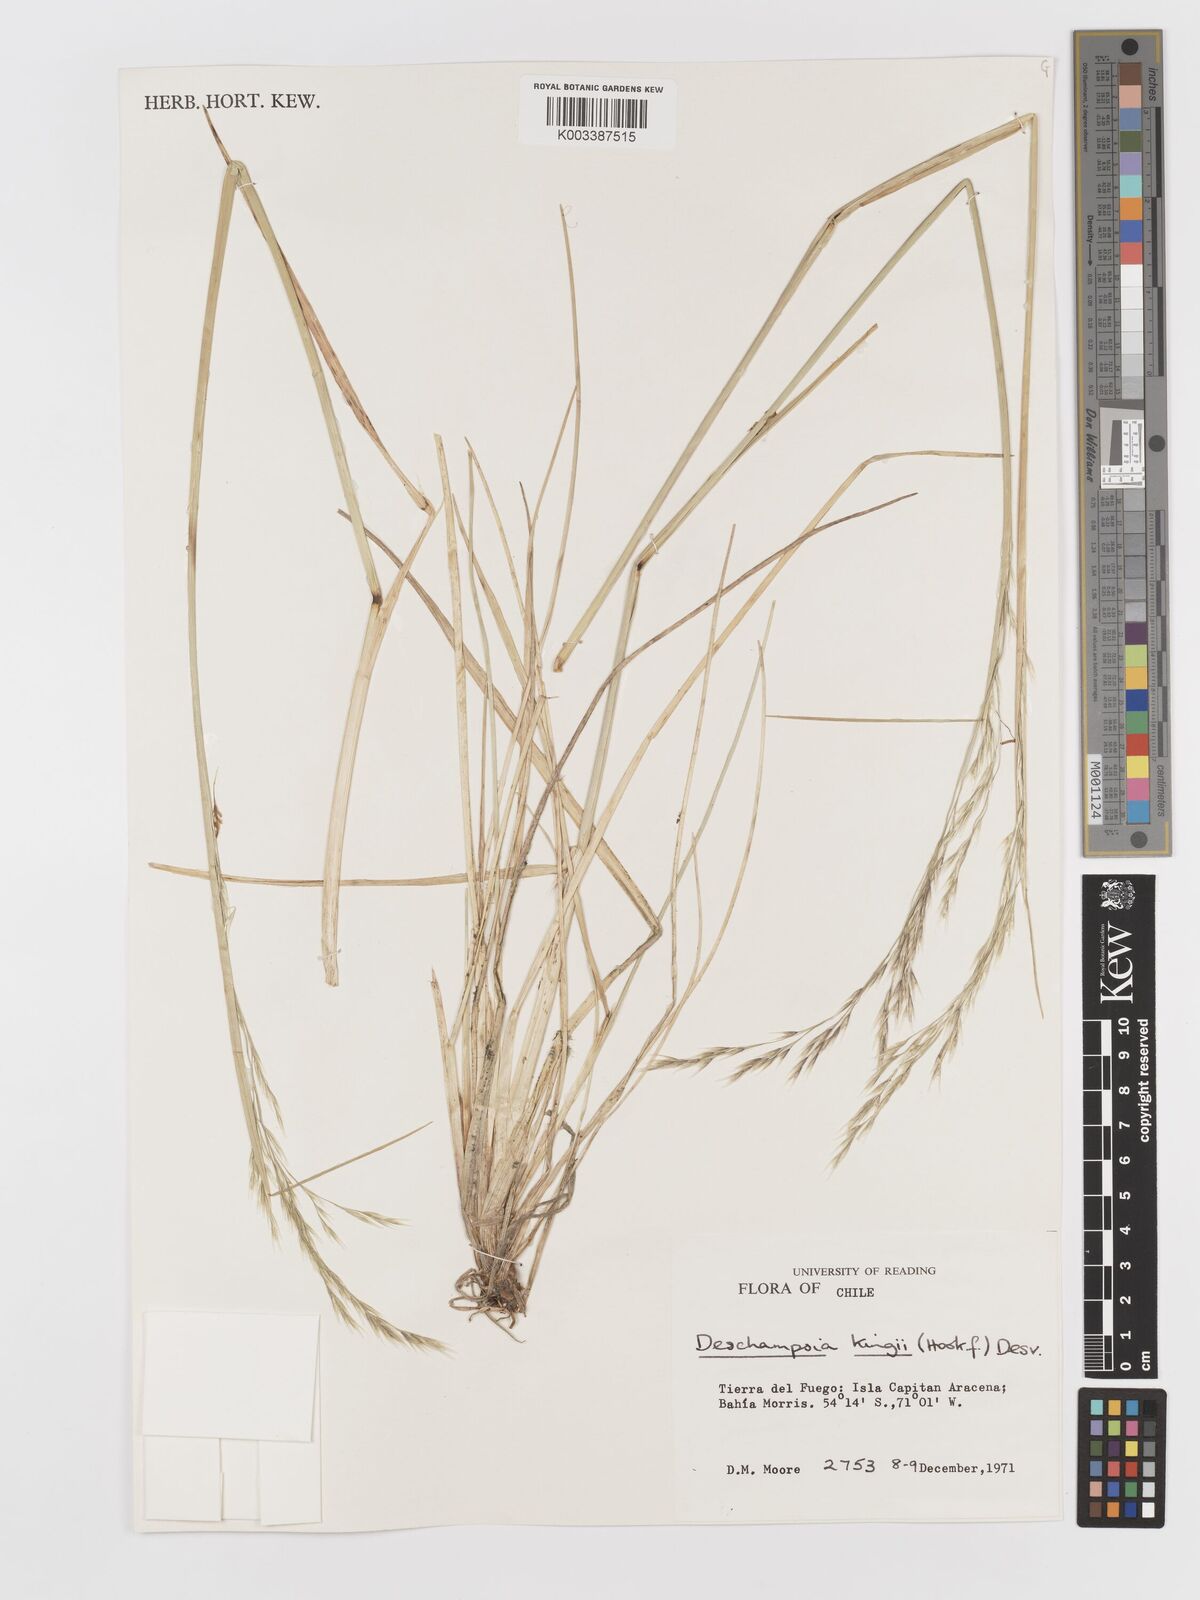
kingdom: Plantae
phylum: Tracheophyta
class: Liliopsida
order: Poales
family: Poaceae
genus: Deschampsia
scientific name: Deschampsia kingii
